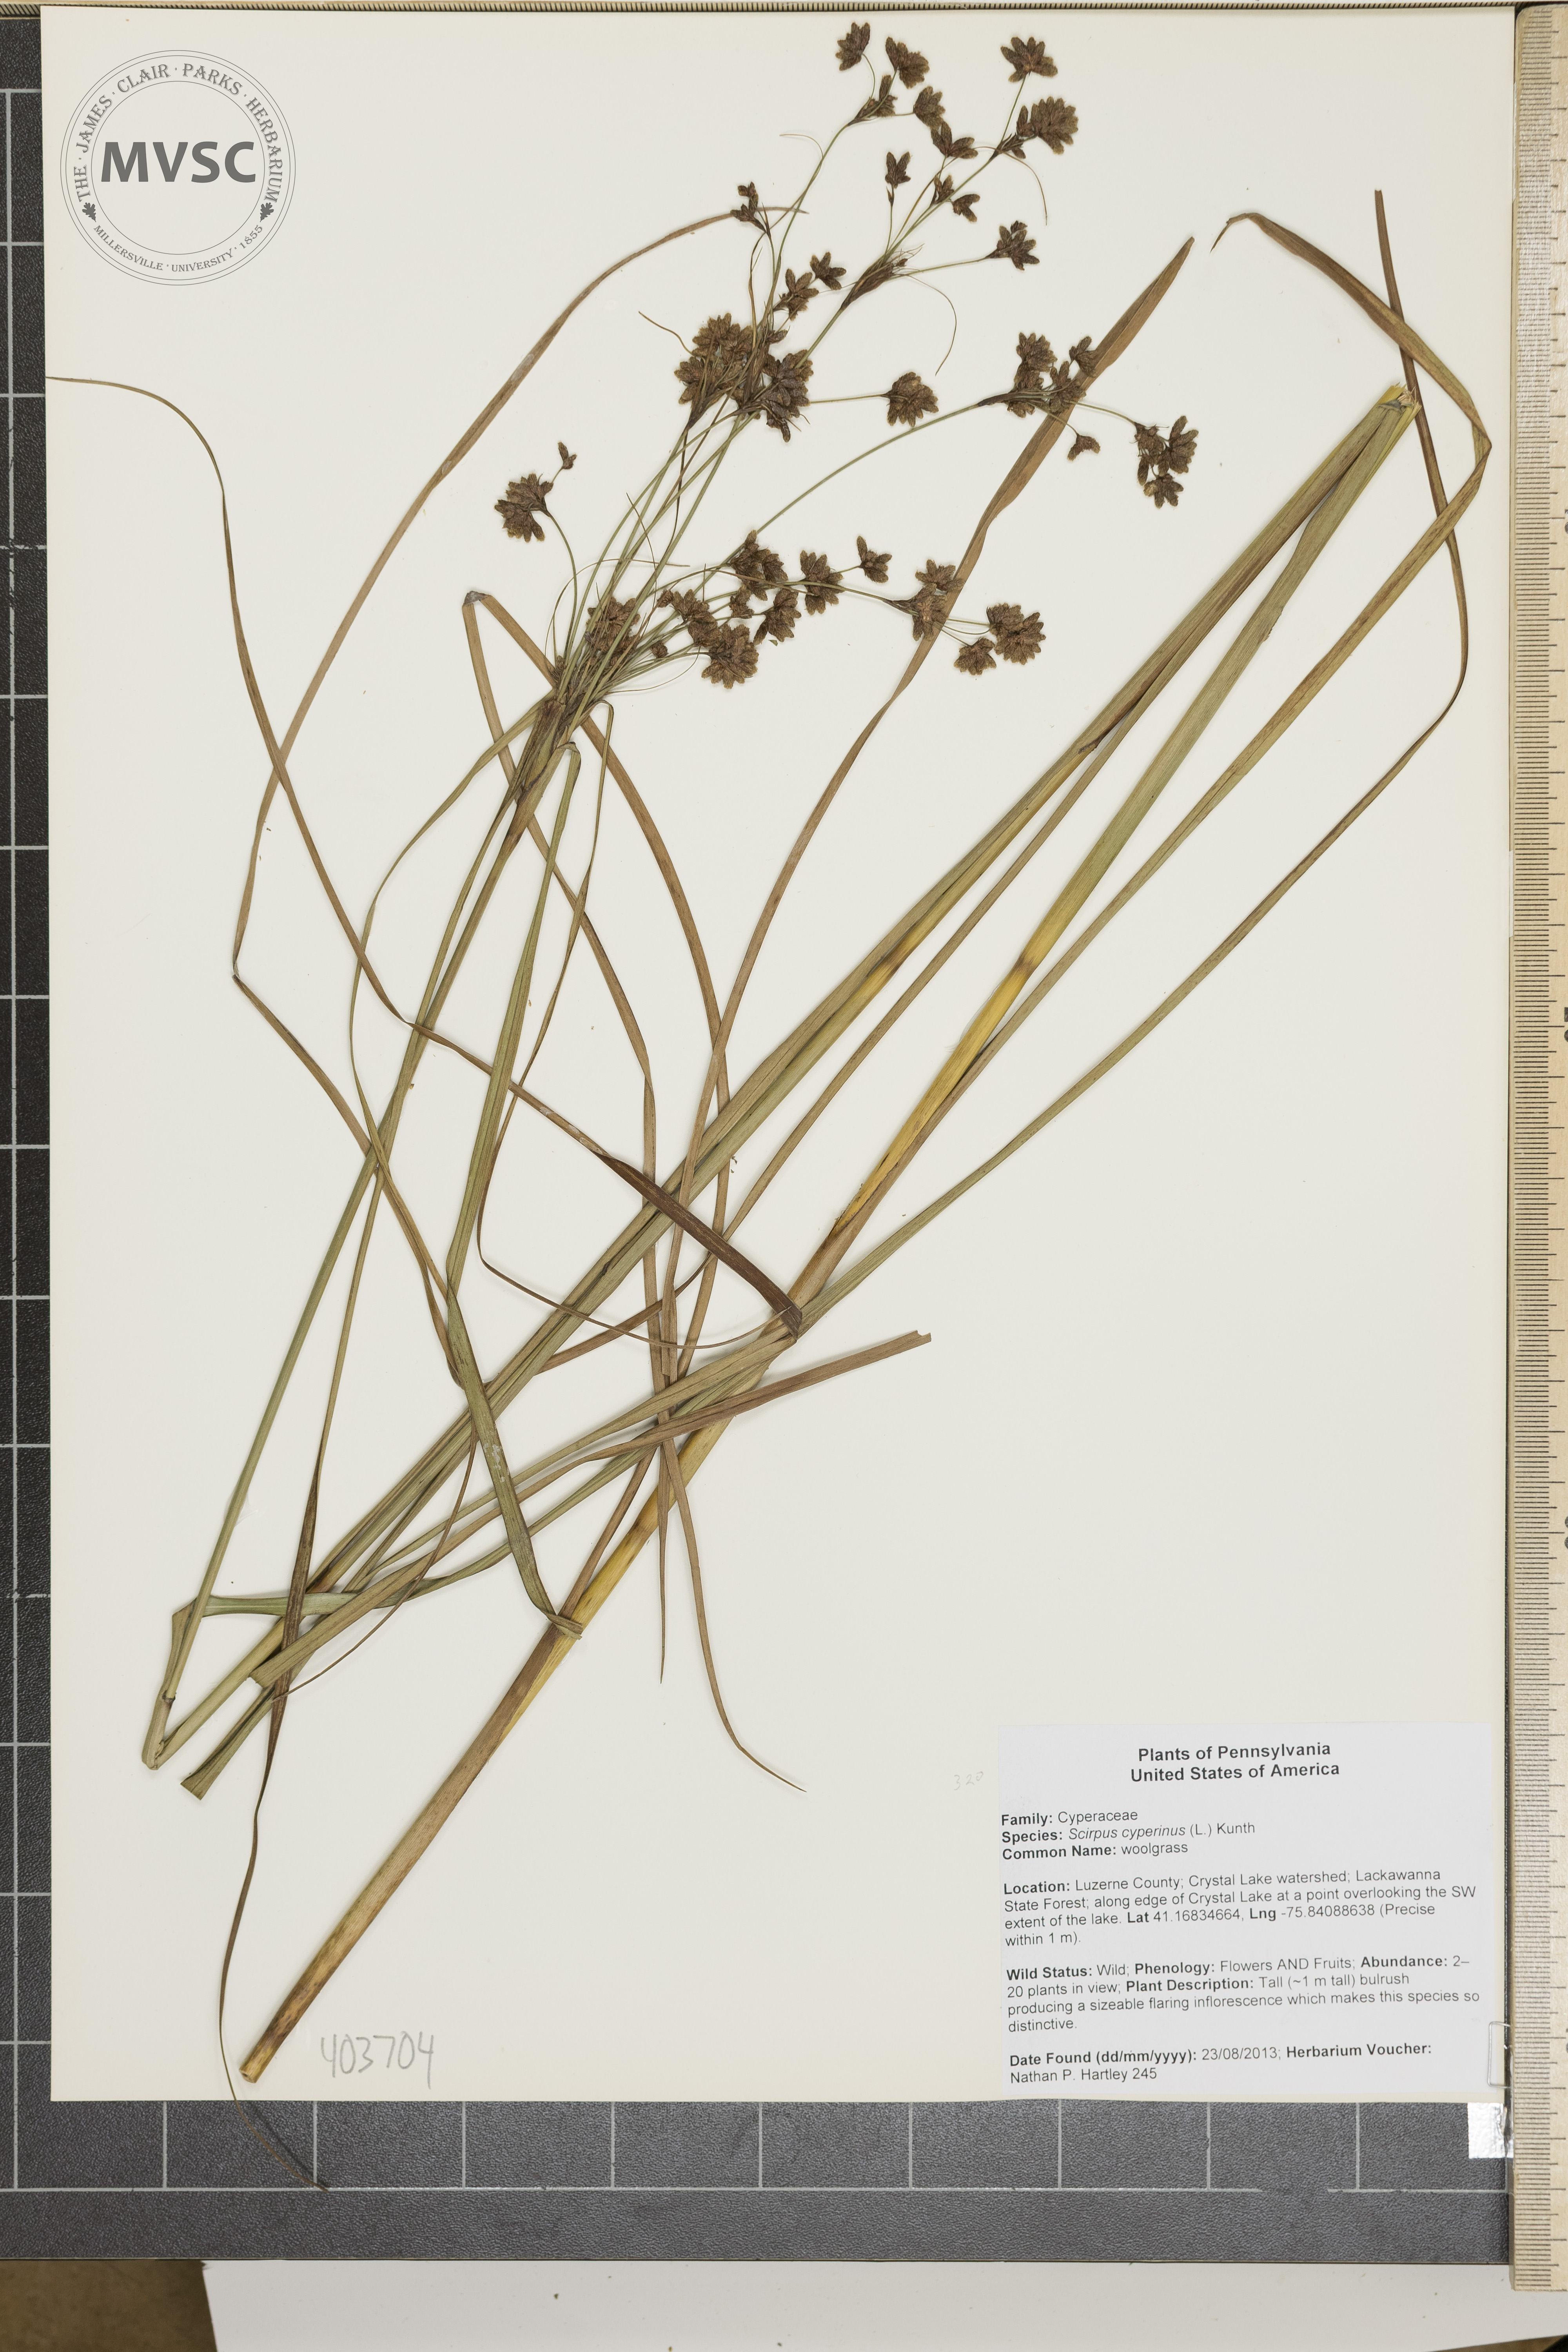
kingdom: Plantae
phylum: Tracheophyta
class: Liliopsida
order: Poales
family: Cyperaceae
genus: Scirpus
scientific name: Scirpus cyperinus
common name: Black-sheathed bulrush
